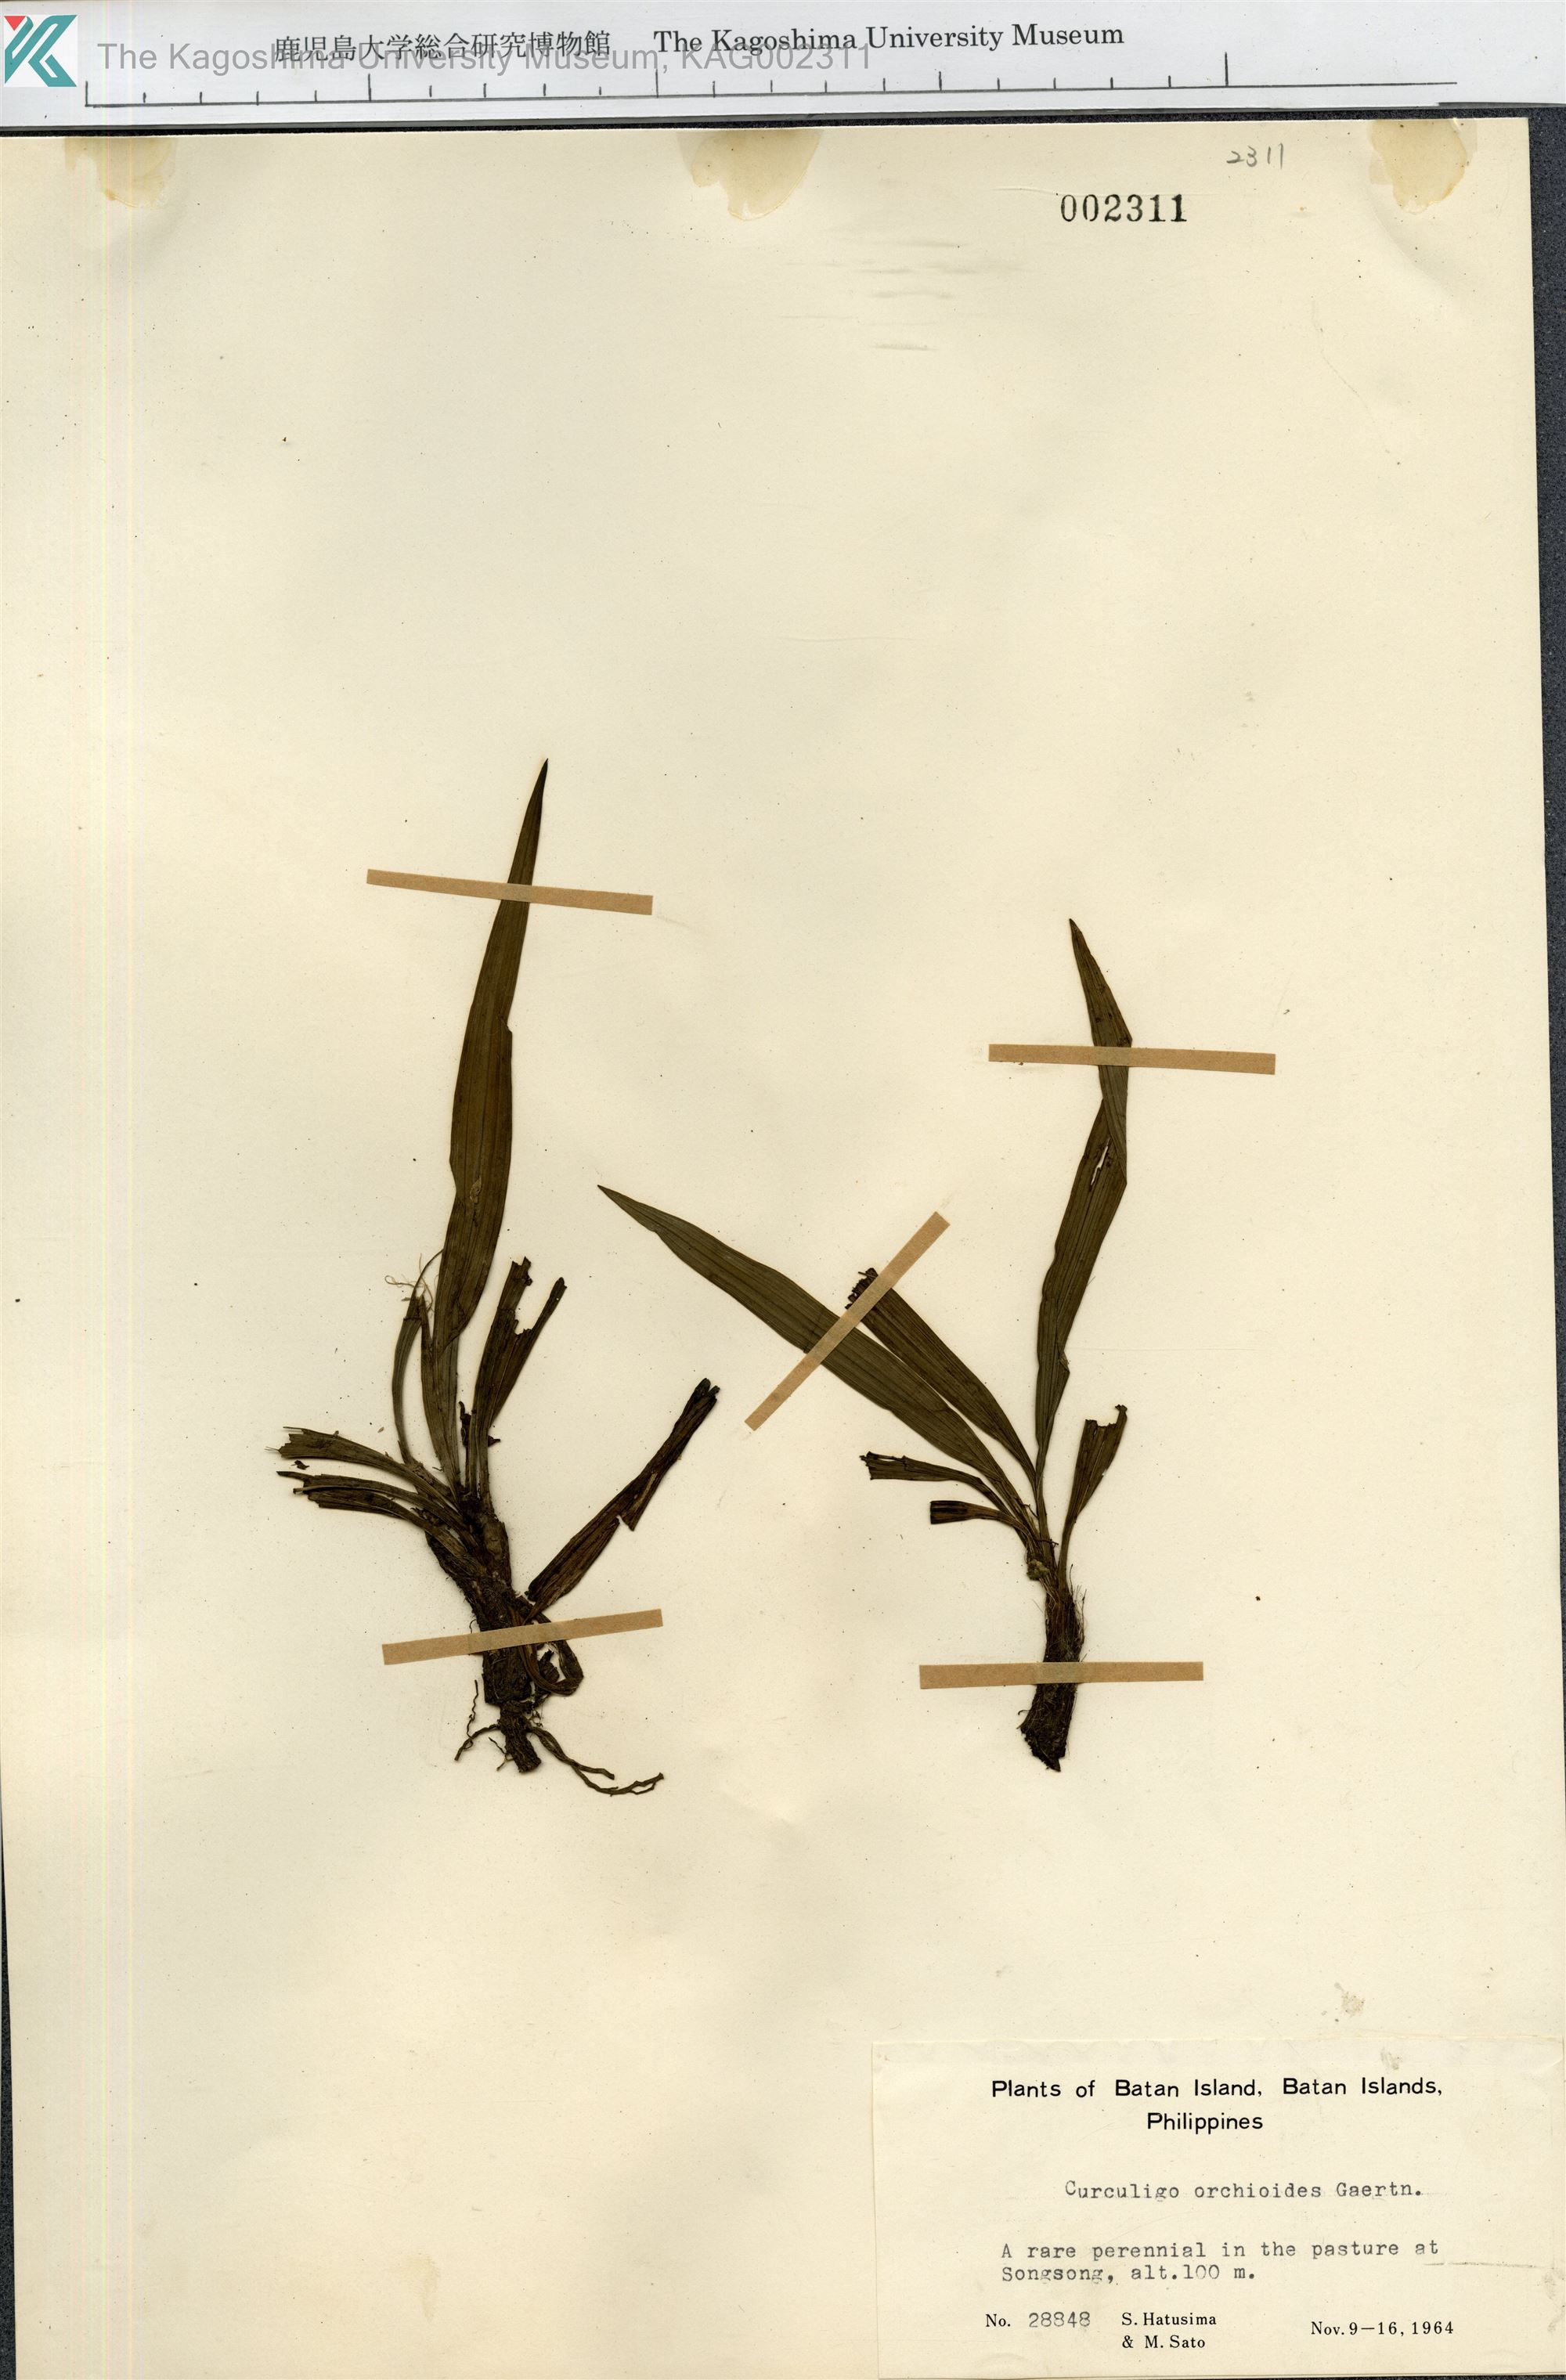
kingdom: Plantae
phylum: Tracheophyta
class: Liliopsida
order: Asparagales
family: Hypoxidaceae
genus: Curculigo
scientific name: Curculigo orchioides
